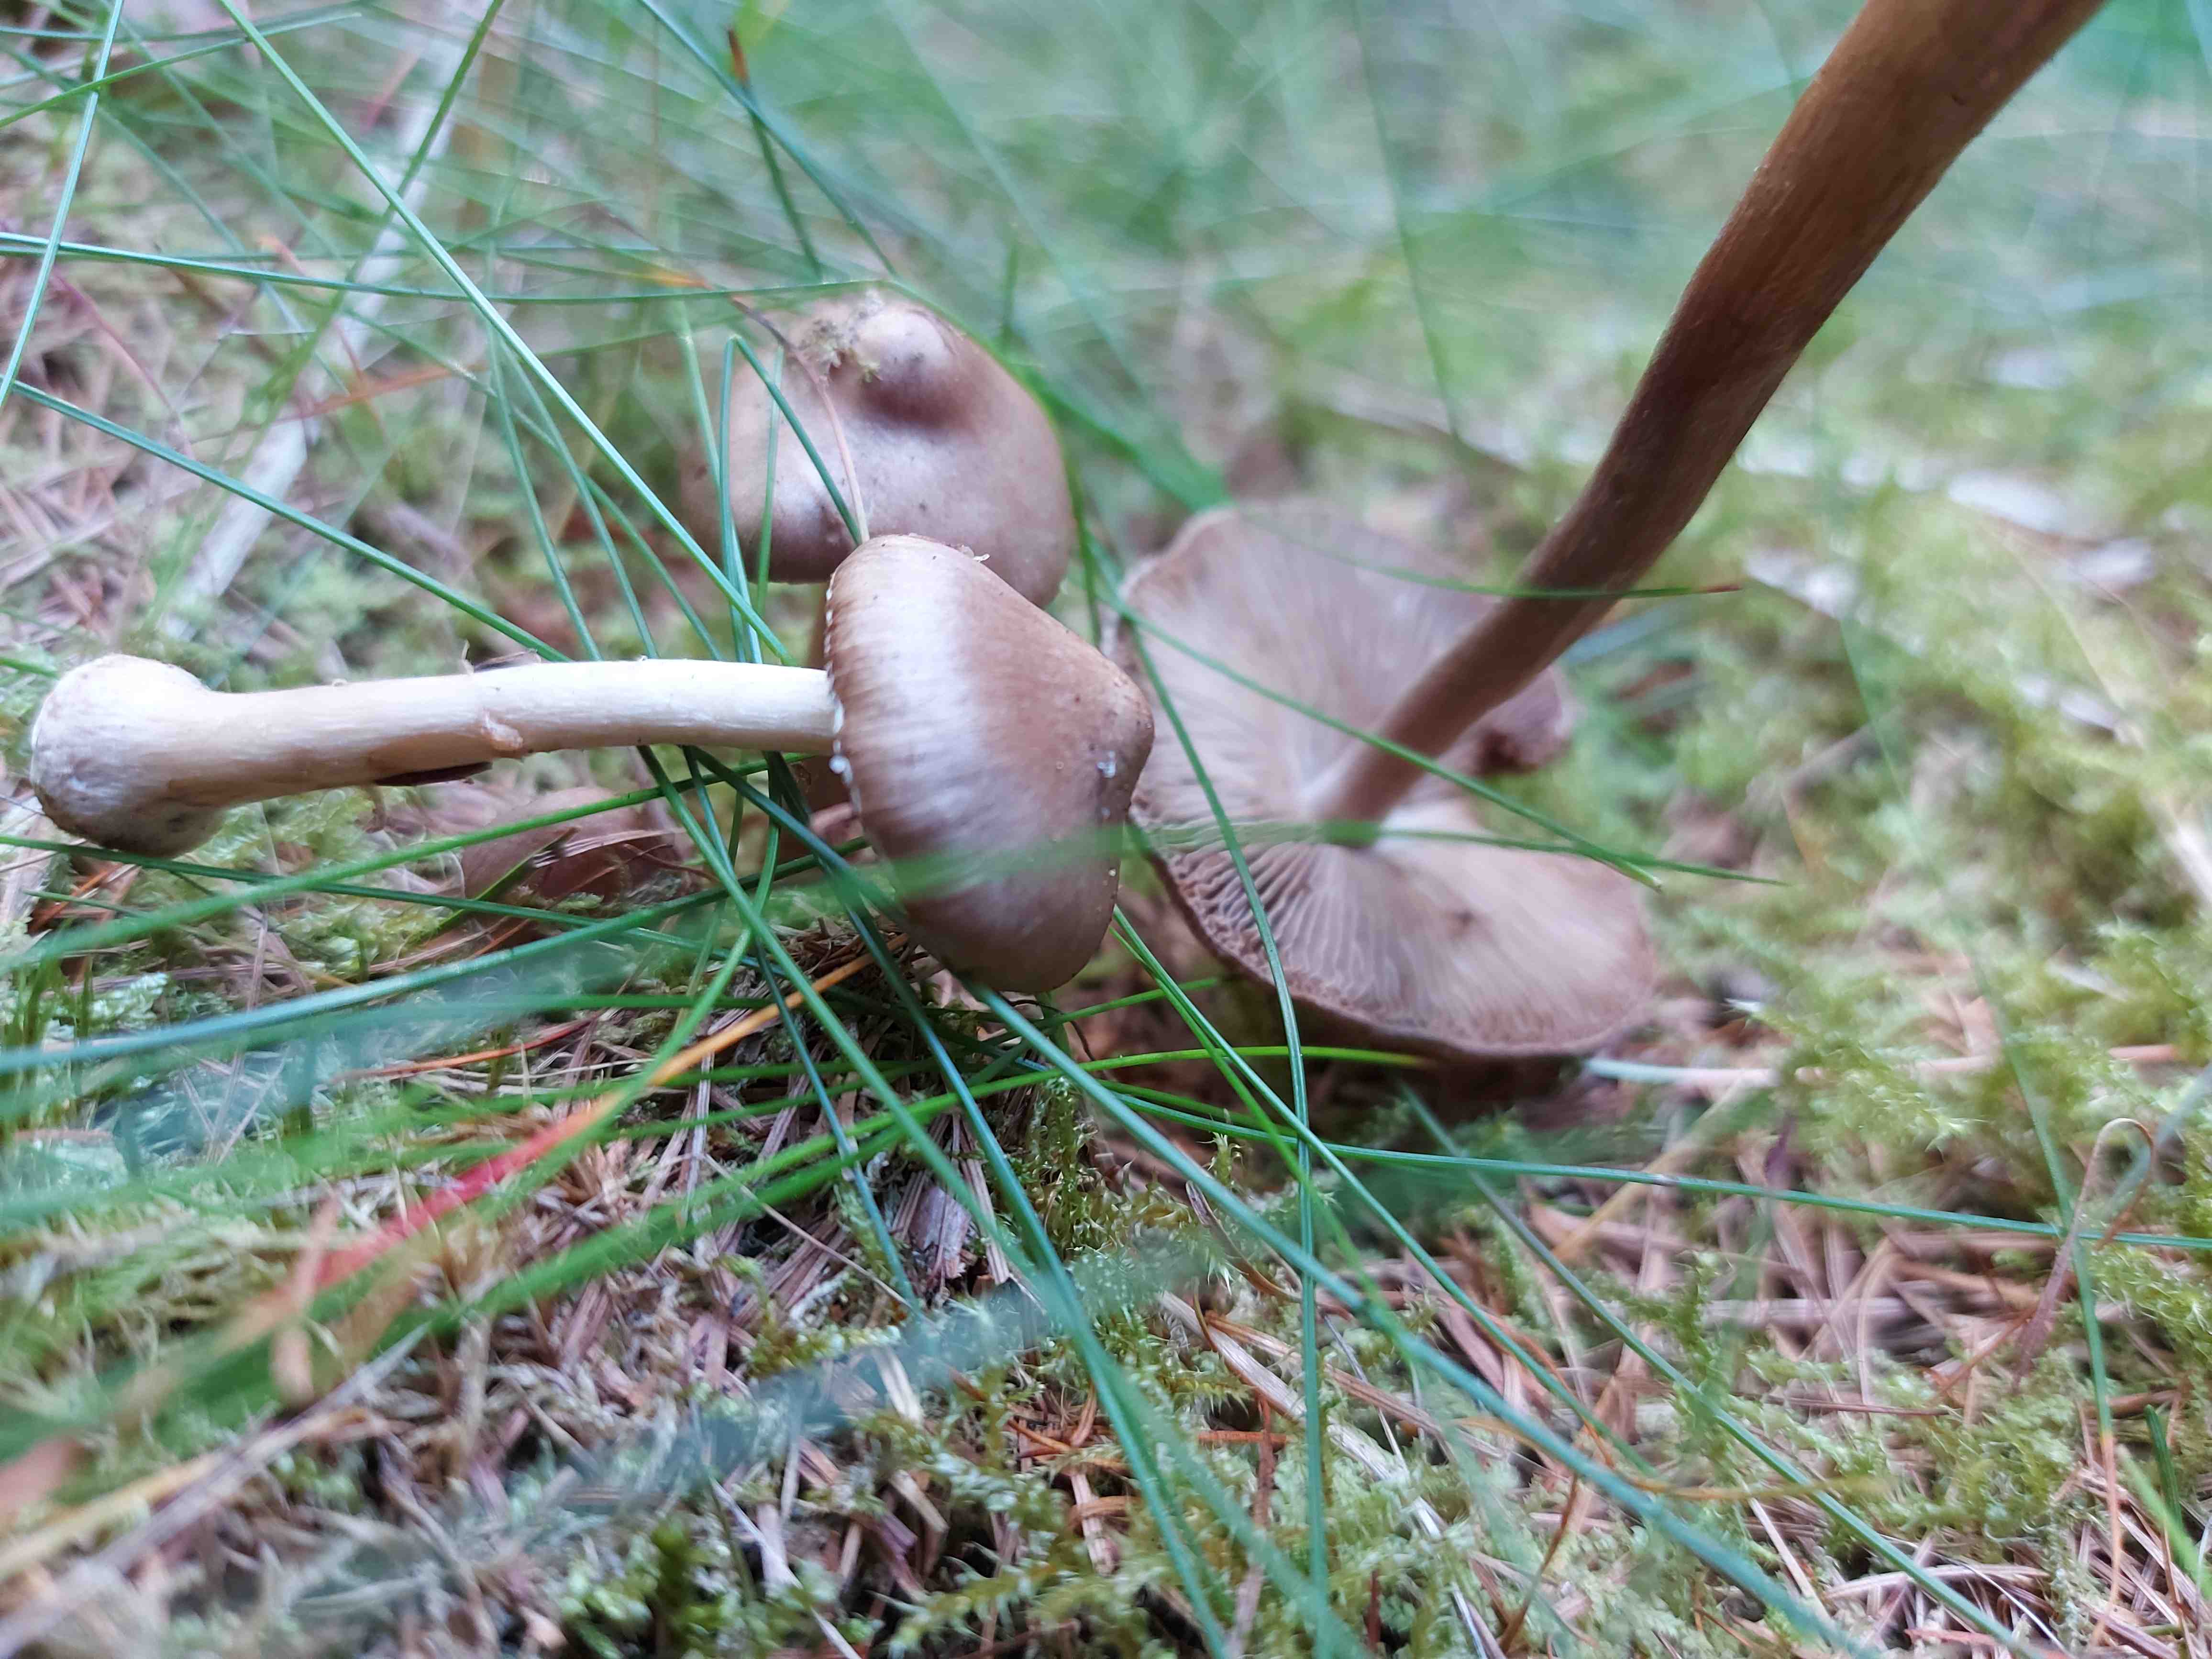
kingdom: Fungi
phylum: Basidiomycota
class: Agaricomycetes
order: Agaricales
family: Inocybaceae
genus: Inocybe
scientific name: Inocybe
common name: trævlhat
